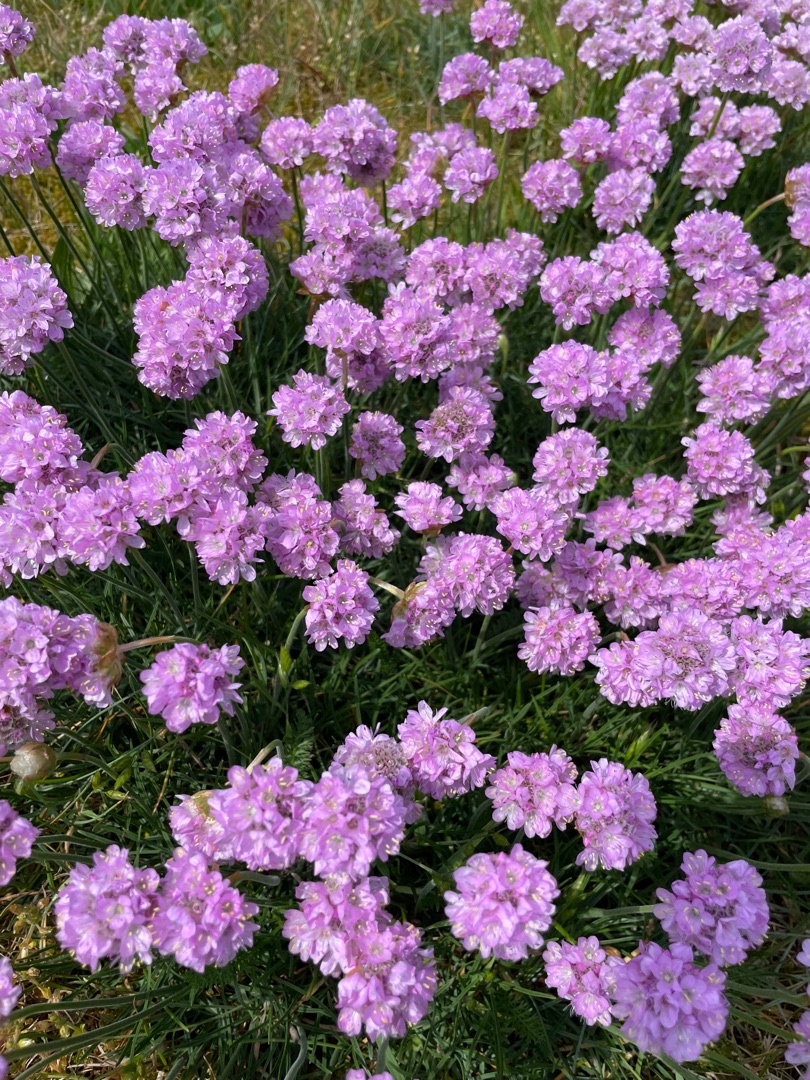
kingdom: Plantae
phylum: Tracheophyta
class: Magnoliopsida
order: Caryophyllales
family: Plumbaginaceae
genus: Armeria
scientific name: Armeria maritima
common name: Engelskgræs
